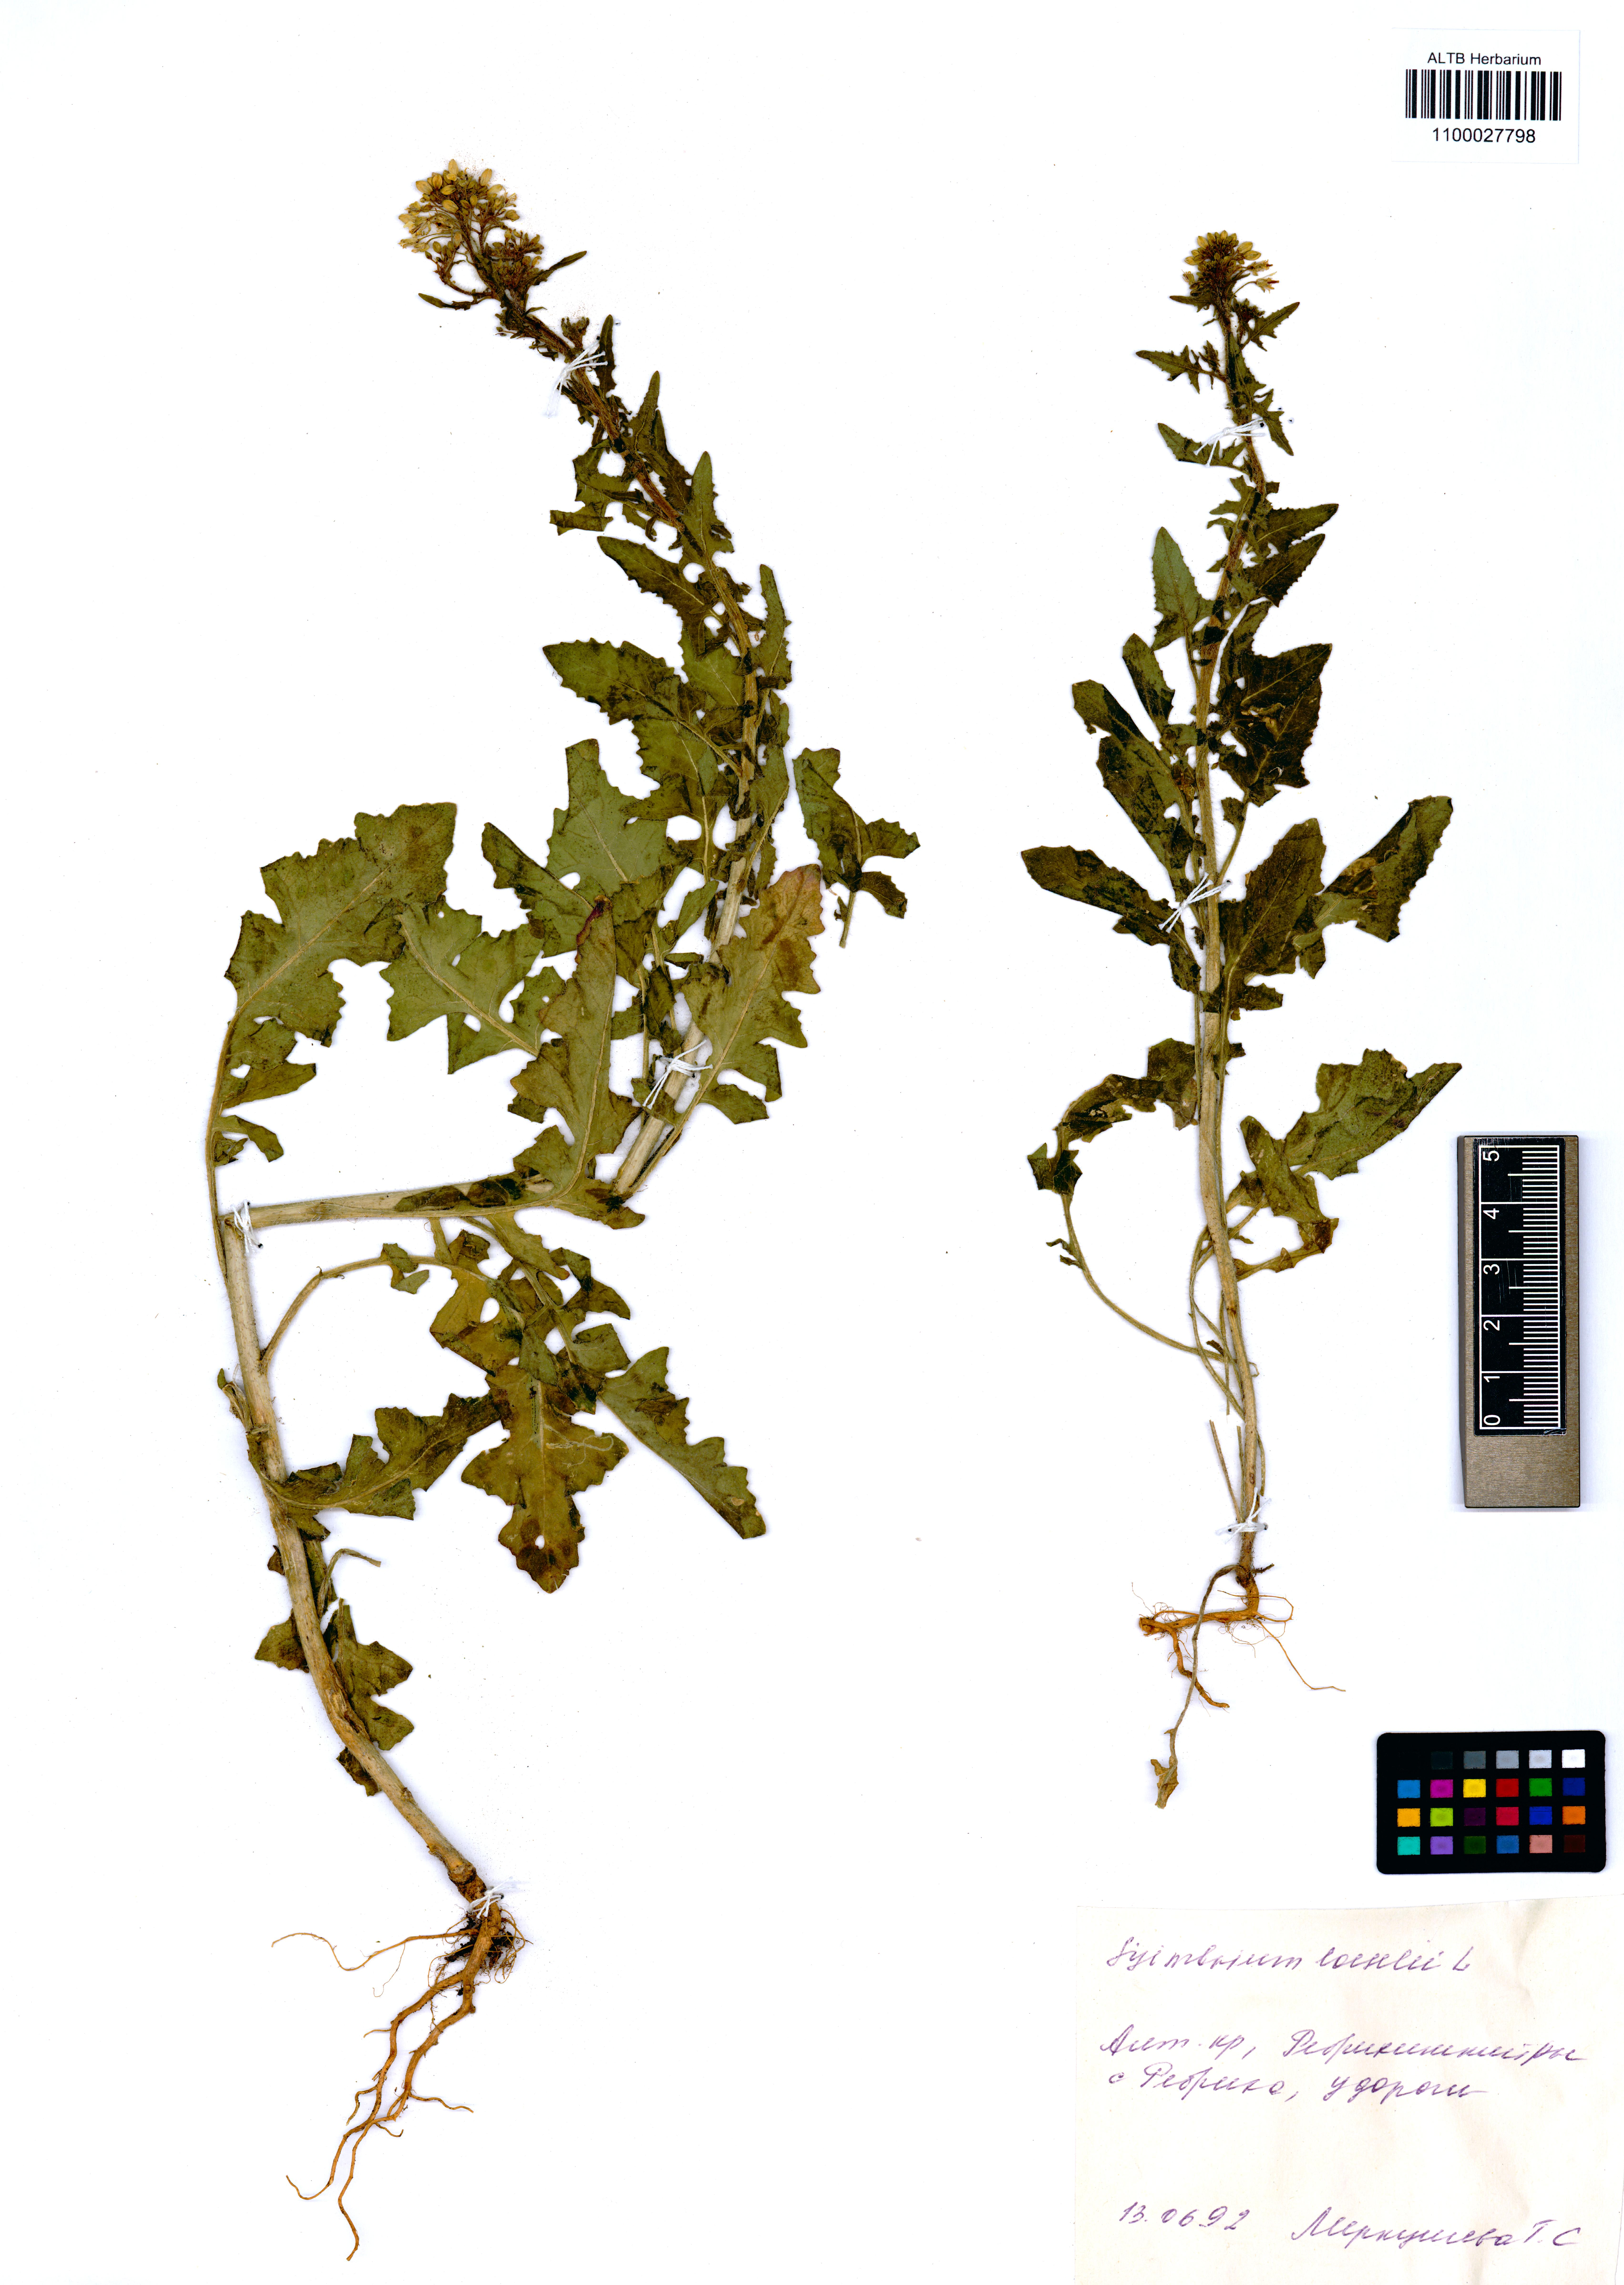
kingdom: Plantae
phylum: Tracheophyta
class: Magnoliopsida
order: Brassicales
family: Brassicaceae
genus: Sisymbrium
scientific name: Sisymbrium loeselii
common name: False london-rocket
